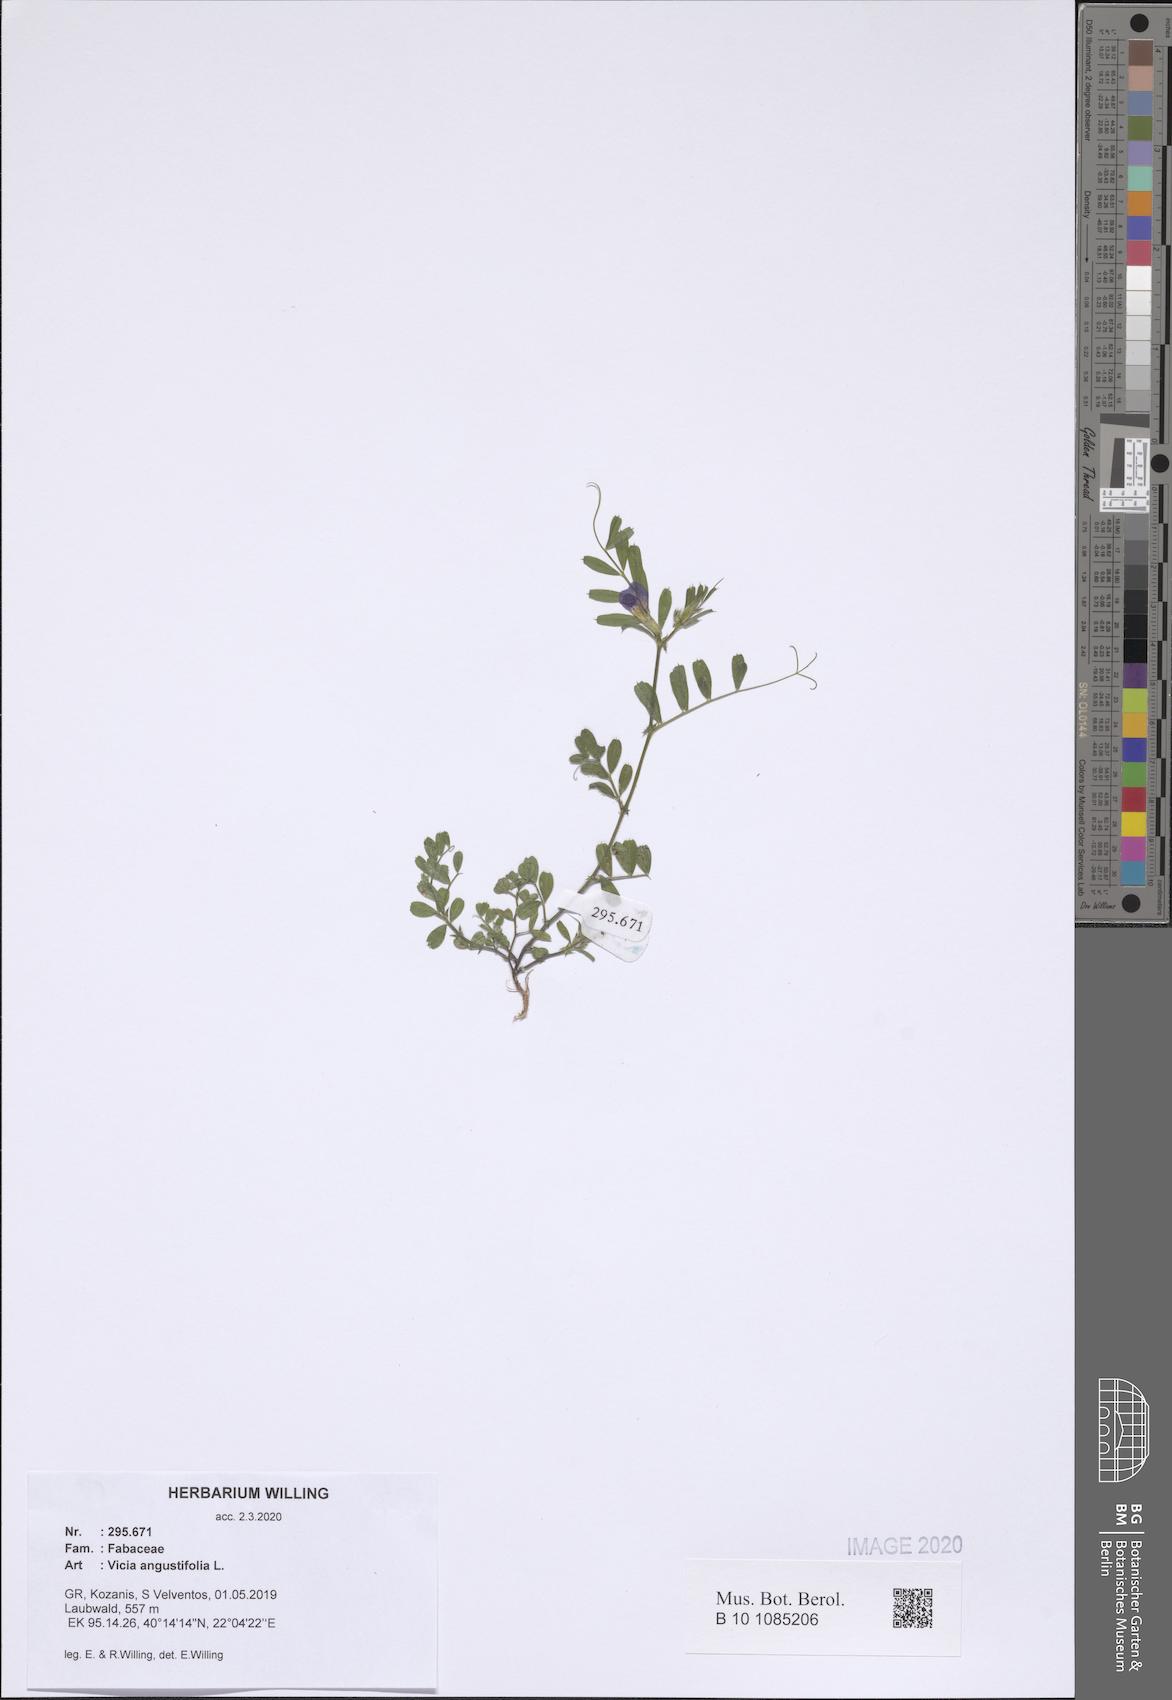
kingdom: Plantae
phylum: Tracheophyta
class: Magnoliopsida
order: Fabales
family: Fabaceae
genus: Vicia
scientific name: Vicia sativa
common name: Garden vetch
